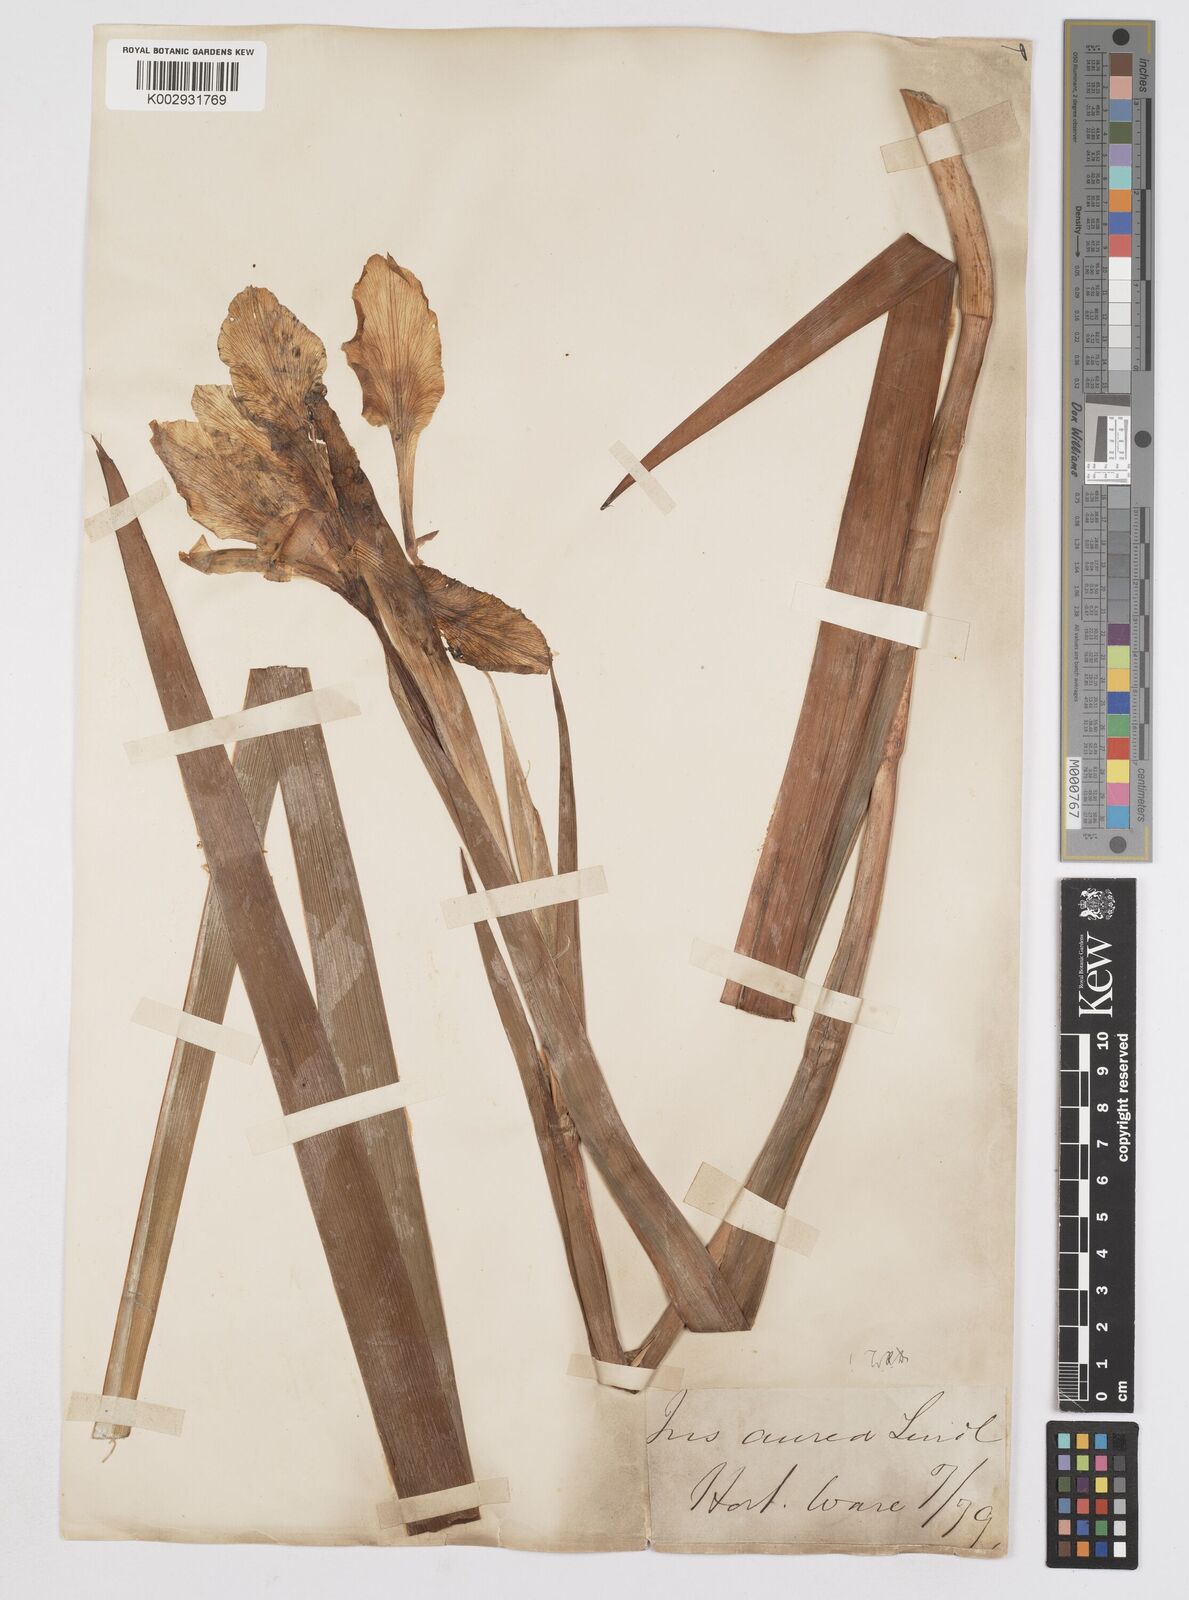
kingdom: Plantae
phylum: Tracheophyta
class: Liliopsida
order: Asparagales
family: Iridaceae
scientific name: Iridaceae
